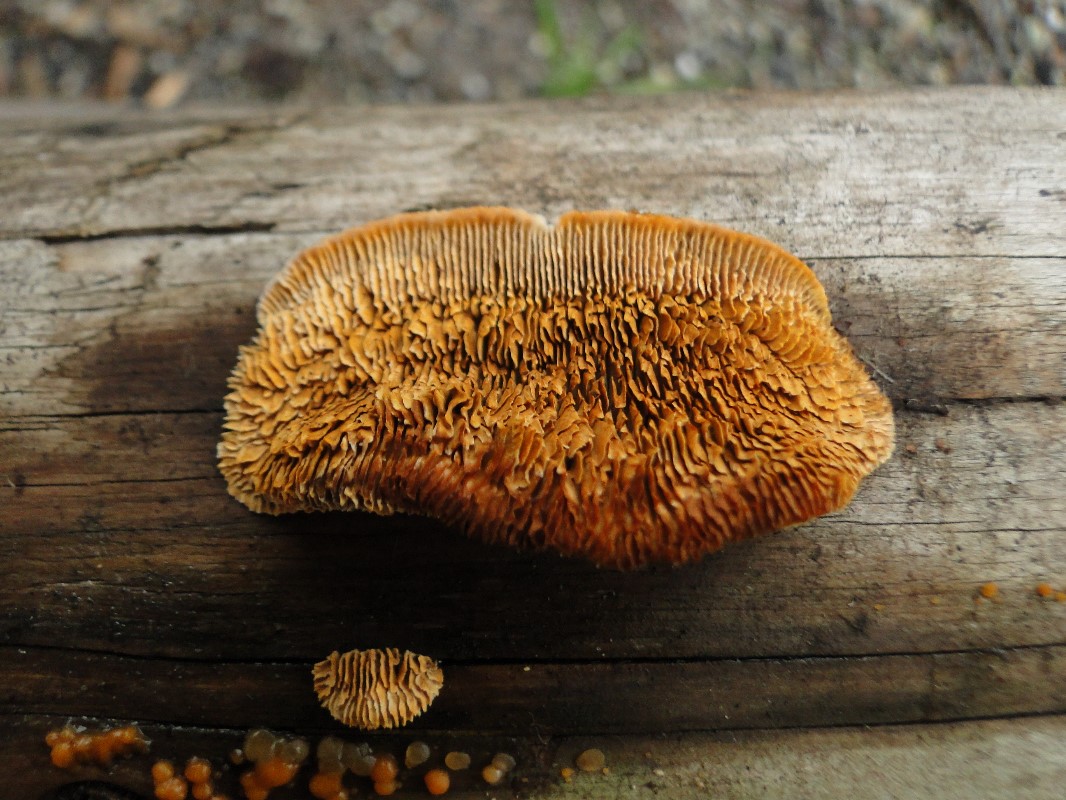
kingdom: Fungi
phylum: Basidiomycota
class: Agaricomycetes
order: Gloeophyllales
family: Gloeophyllaceae
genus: Gloeophyllum
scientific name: Gloeophyllum sepiarium
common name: fyrre-korkhat
